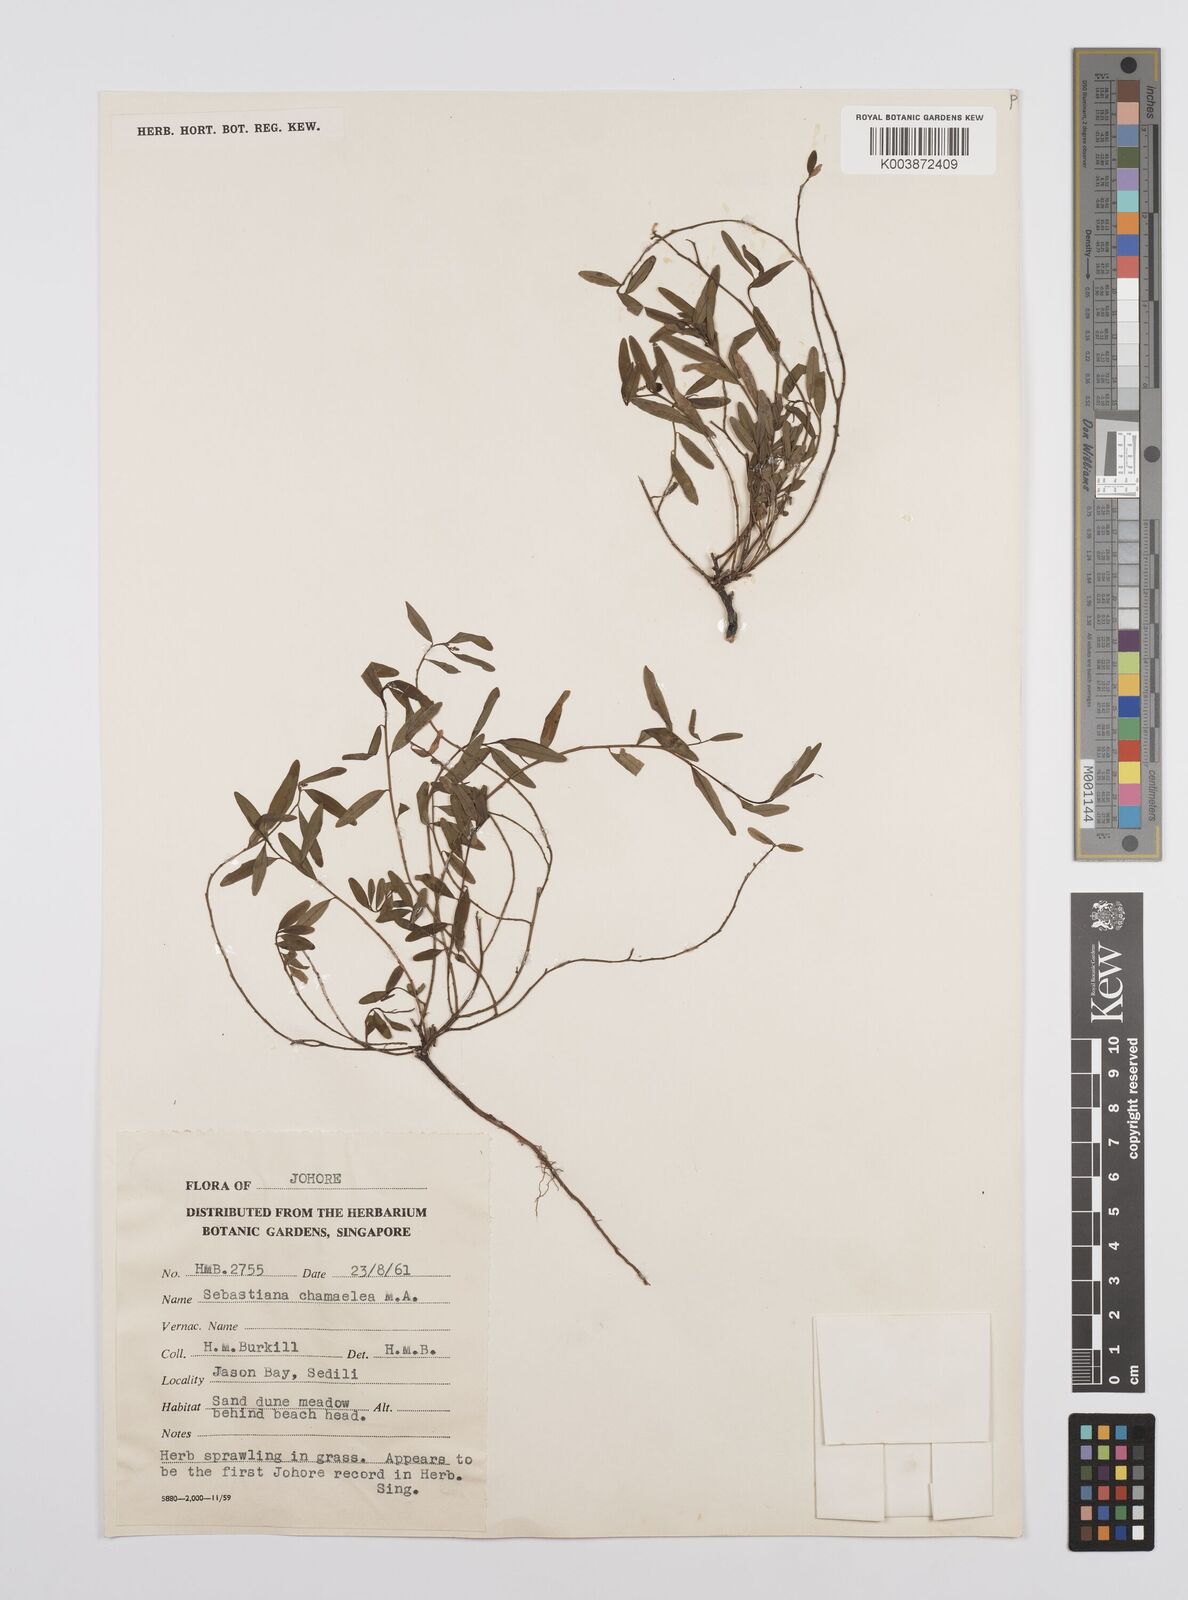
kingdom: Plantae
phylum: Tracheophyta
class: Magnoliopsida
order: Malpighiales
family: Euphorbiaceae
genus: Microstachys
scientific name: Microstachys chamaelea
